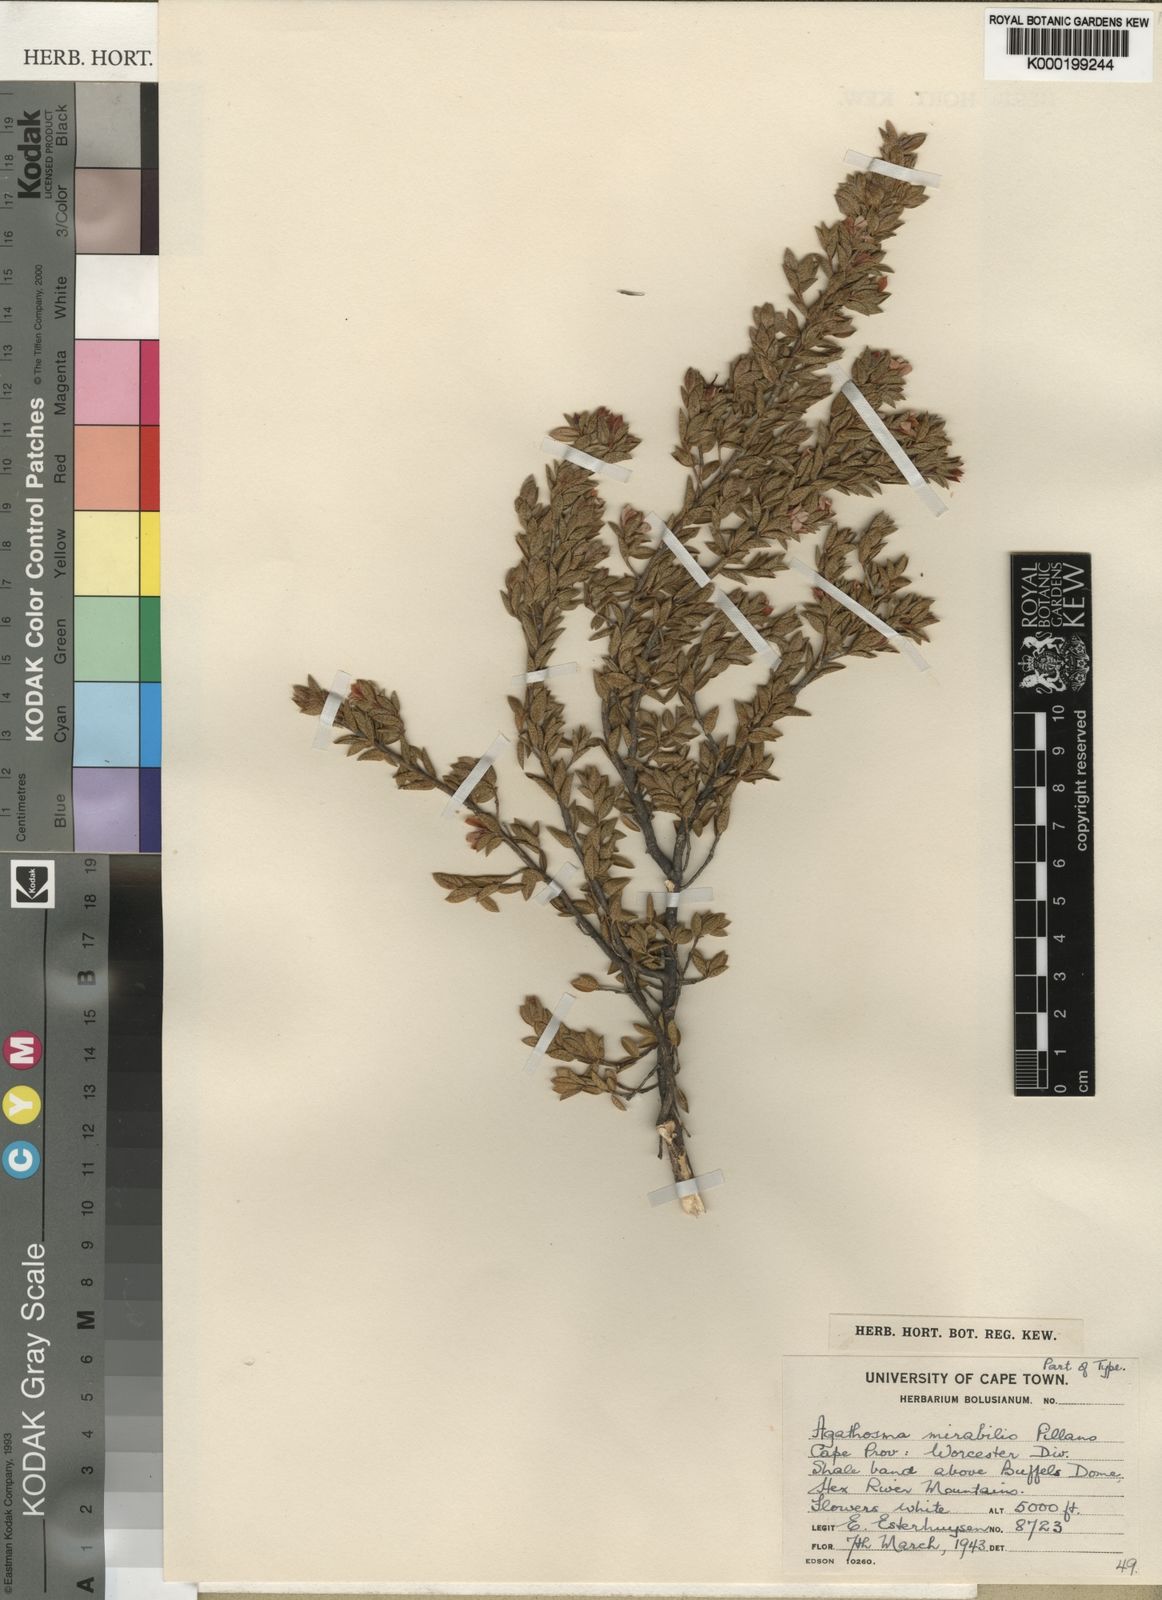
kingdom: Plantae
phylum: Tracheophyta
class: Magnoliopsida
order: Sapindales
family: Rutaceae
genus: Agathosma
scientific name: Agathosma mirabilis
